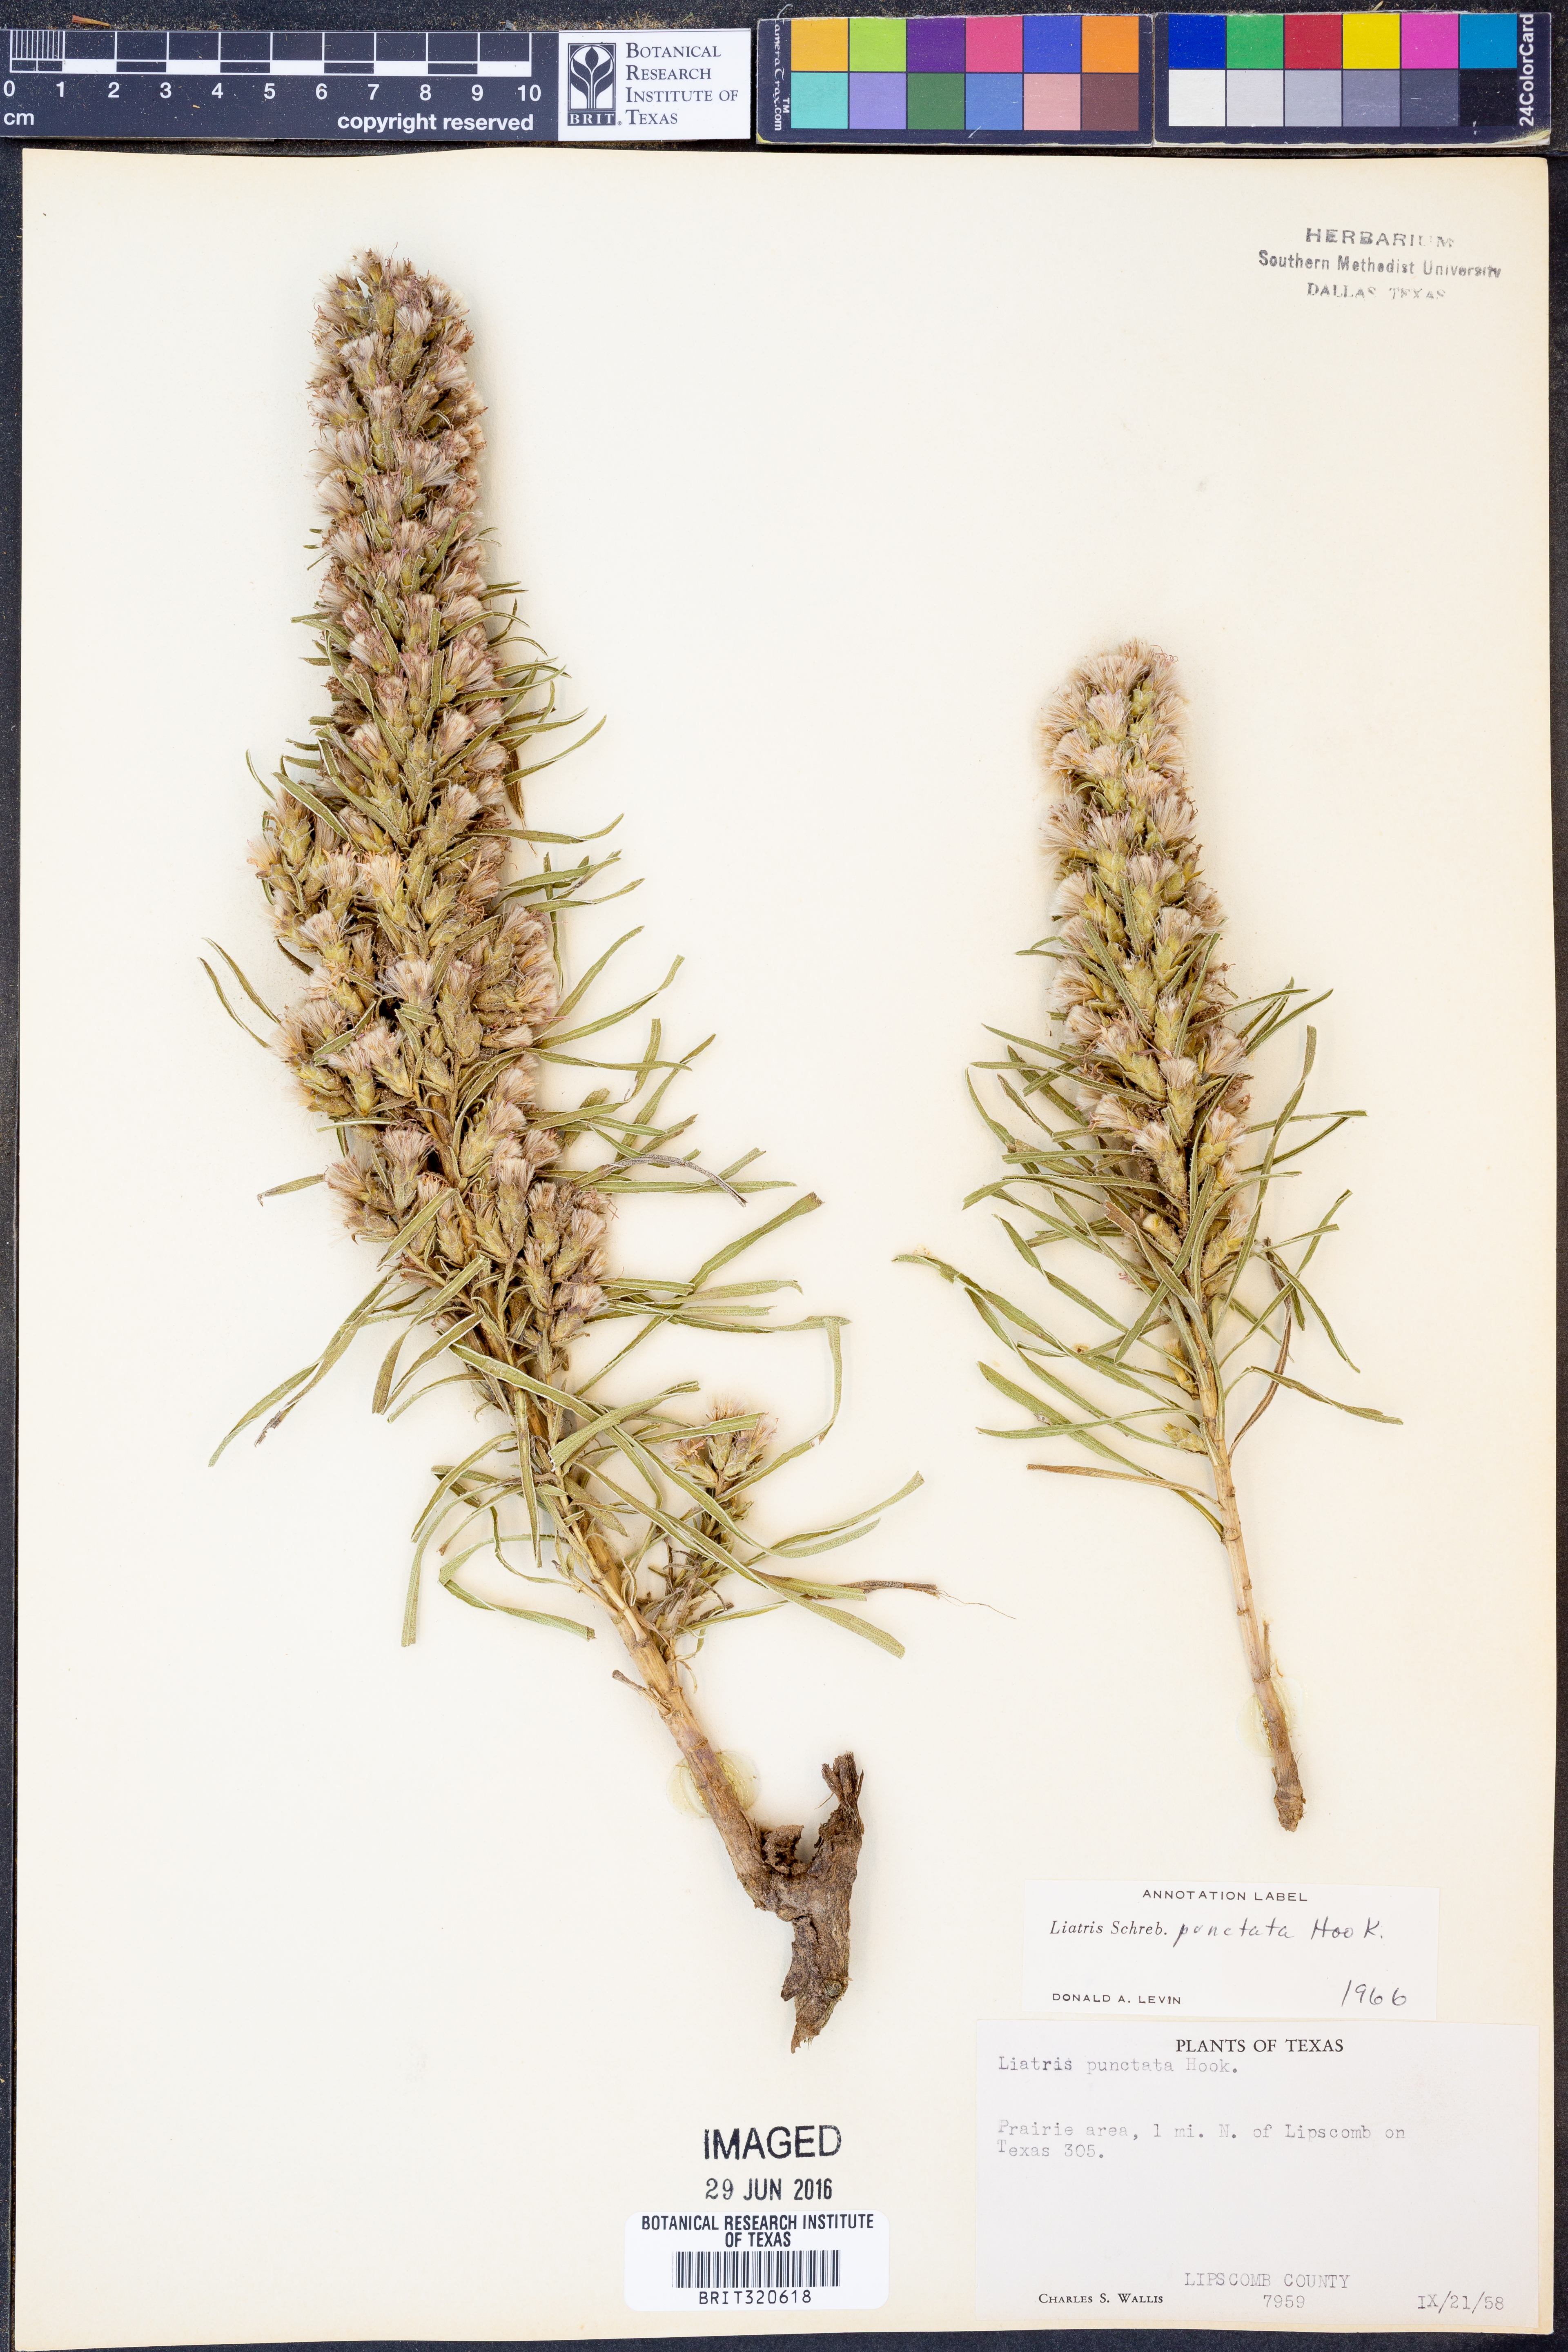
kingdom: Plantae
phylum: Tracheophyta
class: Magnoliopsida
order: Asterales
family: Asteraceae
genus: Liatris
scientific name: Liatris punctata
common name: Dotted gayfeather
